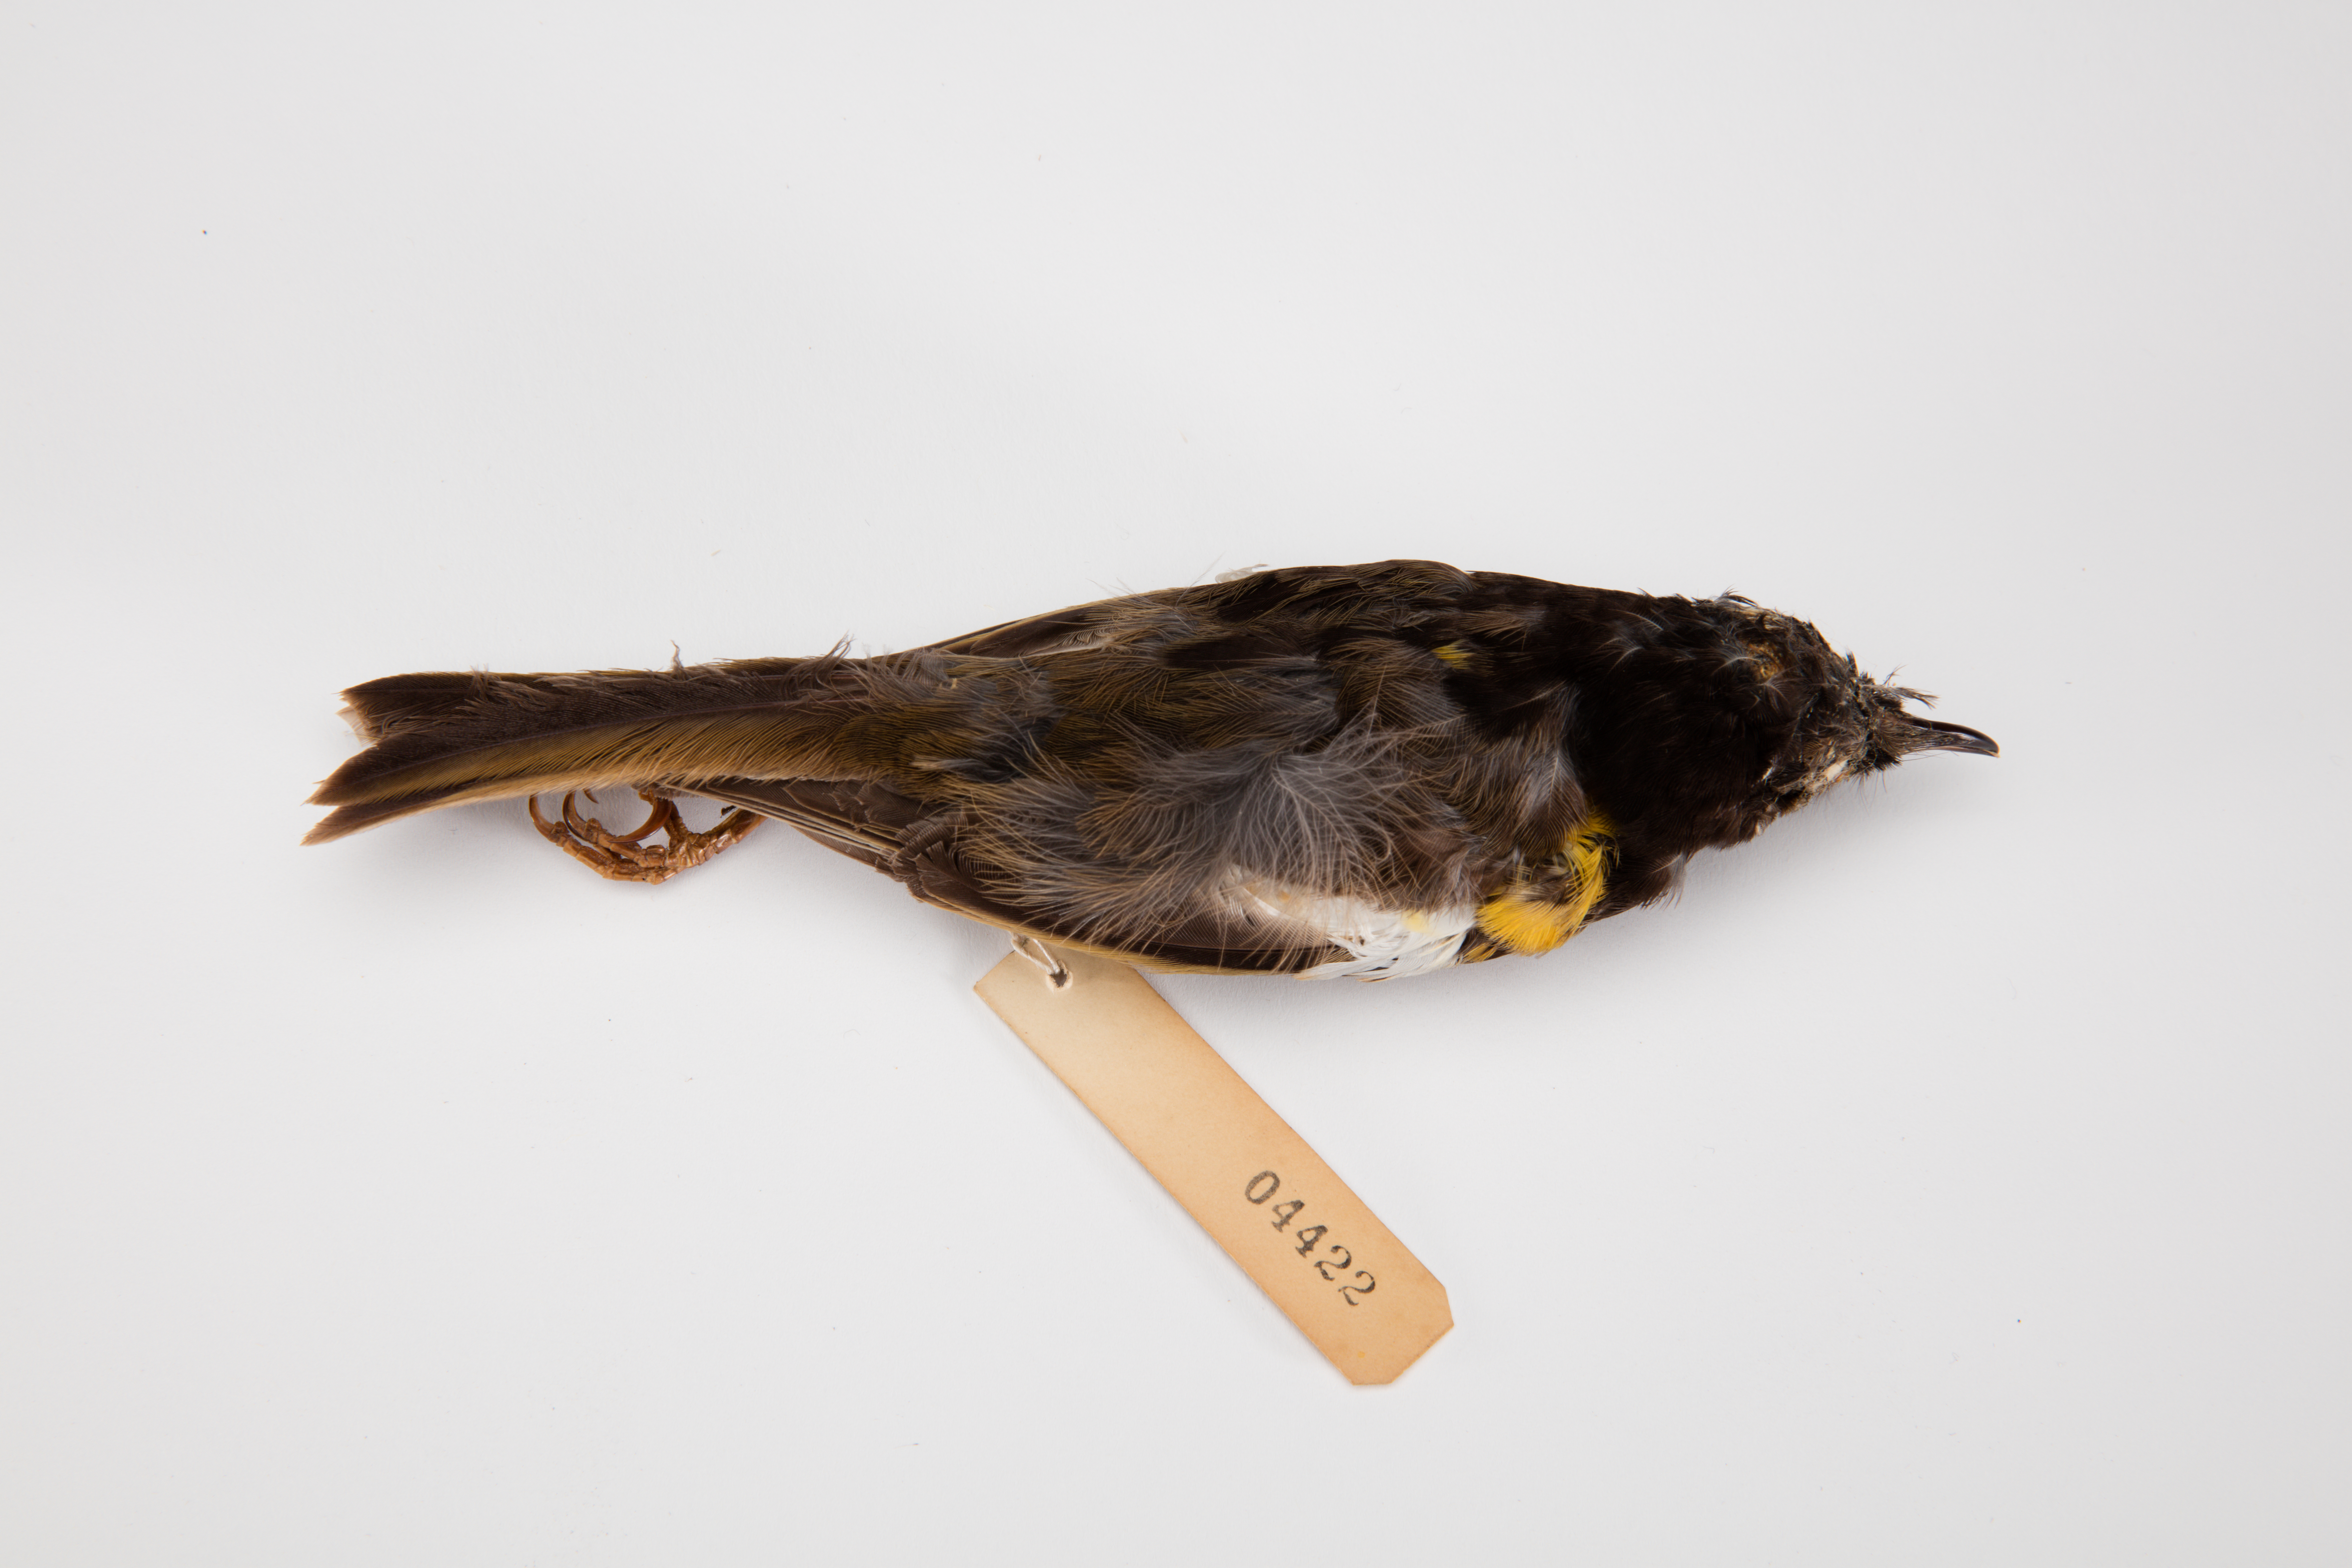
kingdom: Animalia
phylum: Chordata
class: Aves
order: Passeriformes
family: Notiomystidae
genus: Notiomystis
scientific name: Notiomystis cincta
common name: Stitchbird
